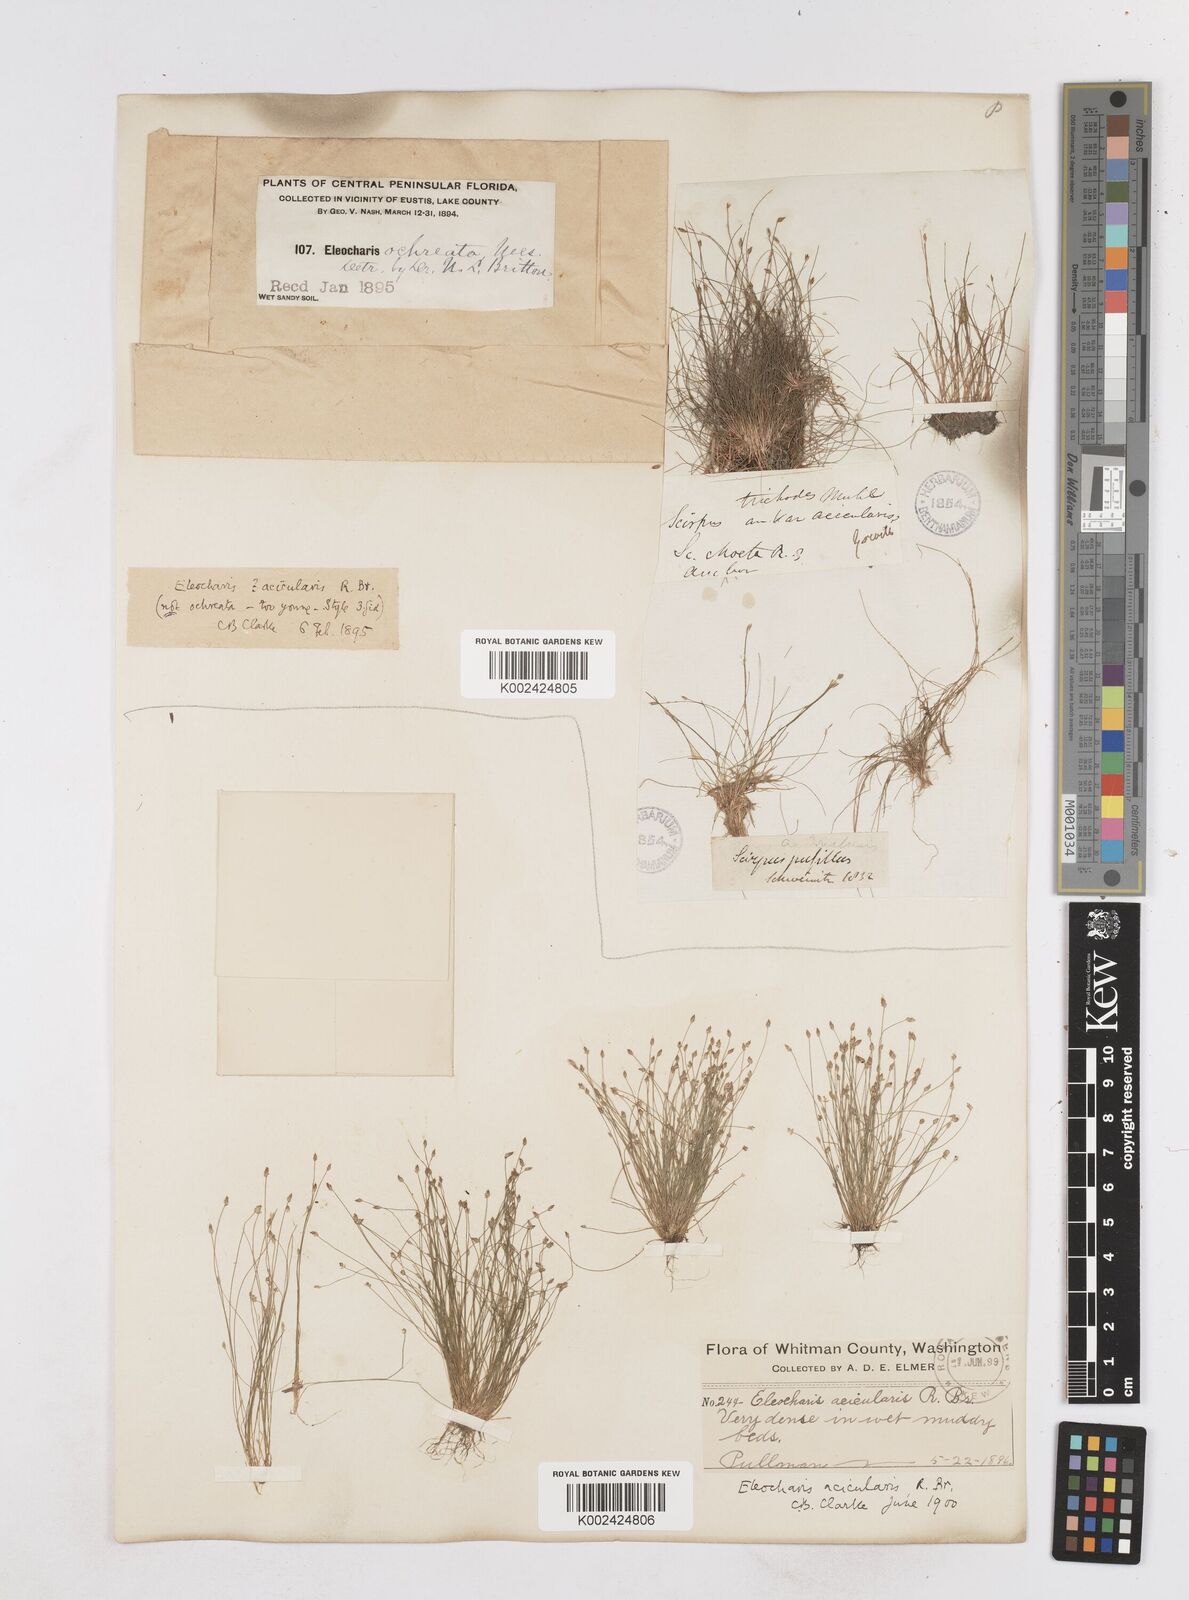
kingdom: Plantae
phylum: Tracheophyta
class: Liliopsida
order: Poales
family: Cyperaceae
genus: Eleocharis
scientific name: Eleocharis acicularis
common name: Needle spike-rush
